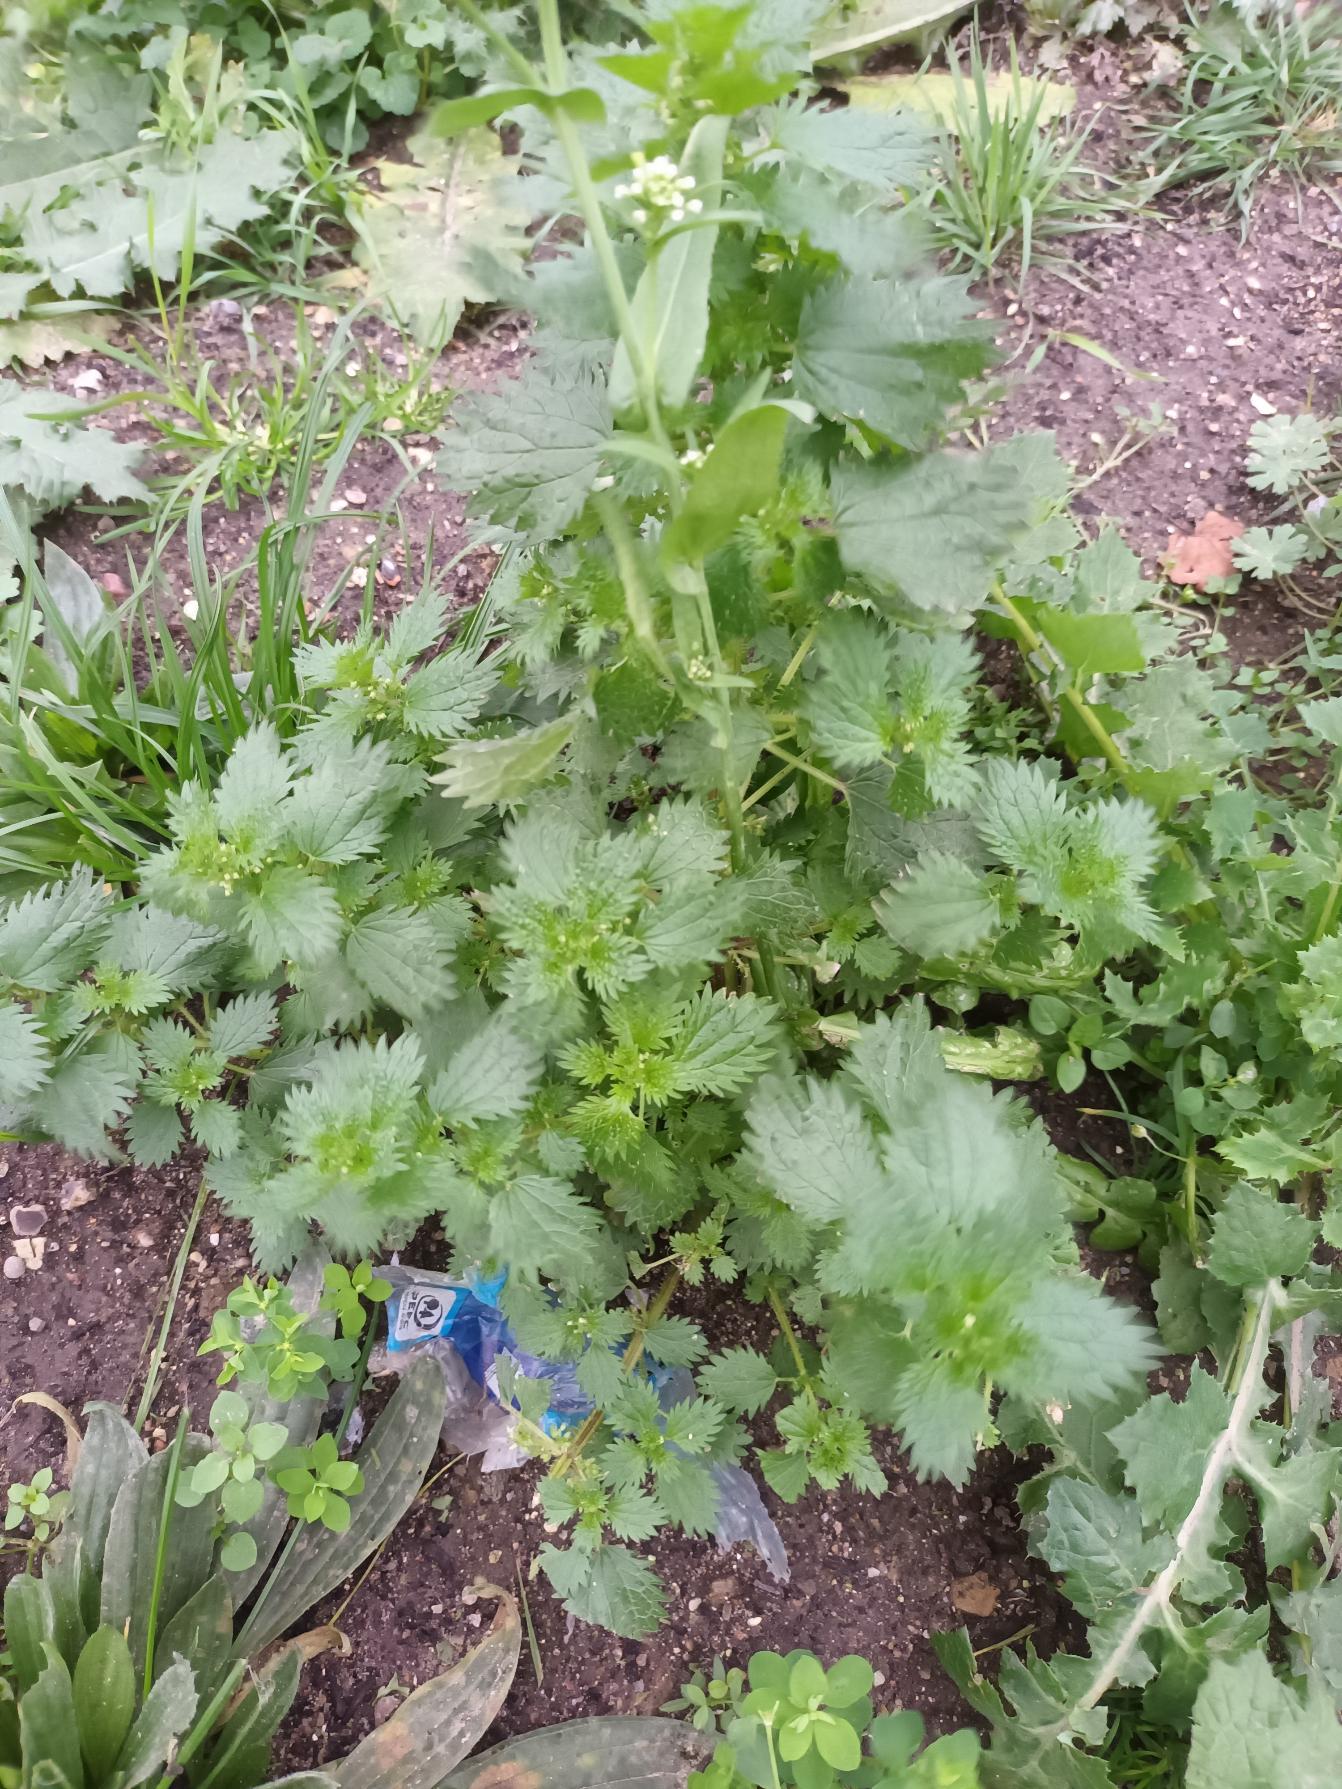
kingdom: Plantae
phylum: Tracheophyta
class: Magnoliopsida
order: Rosales
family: Urticaceae
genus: Urtica
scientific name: Urtica urens
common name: Liden nælde
